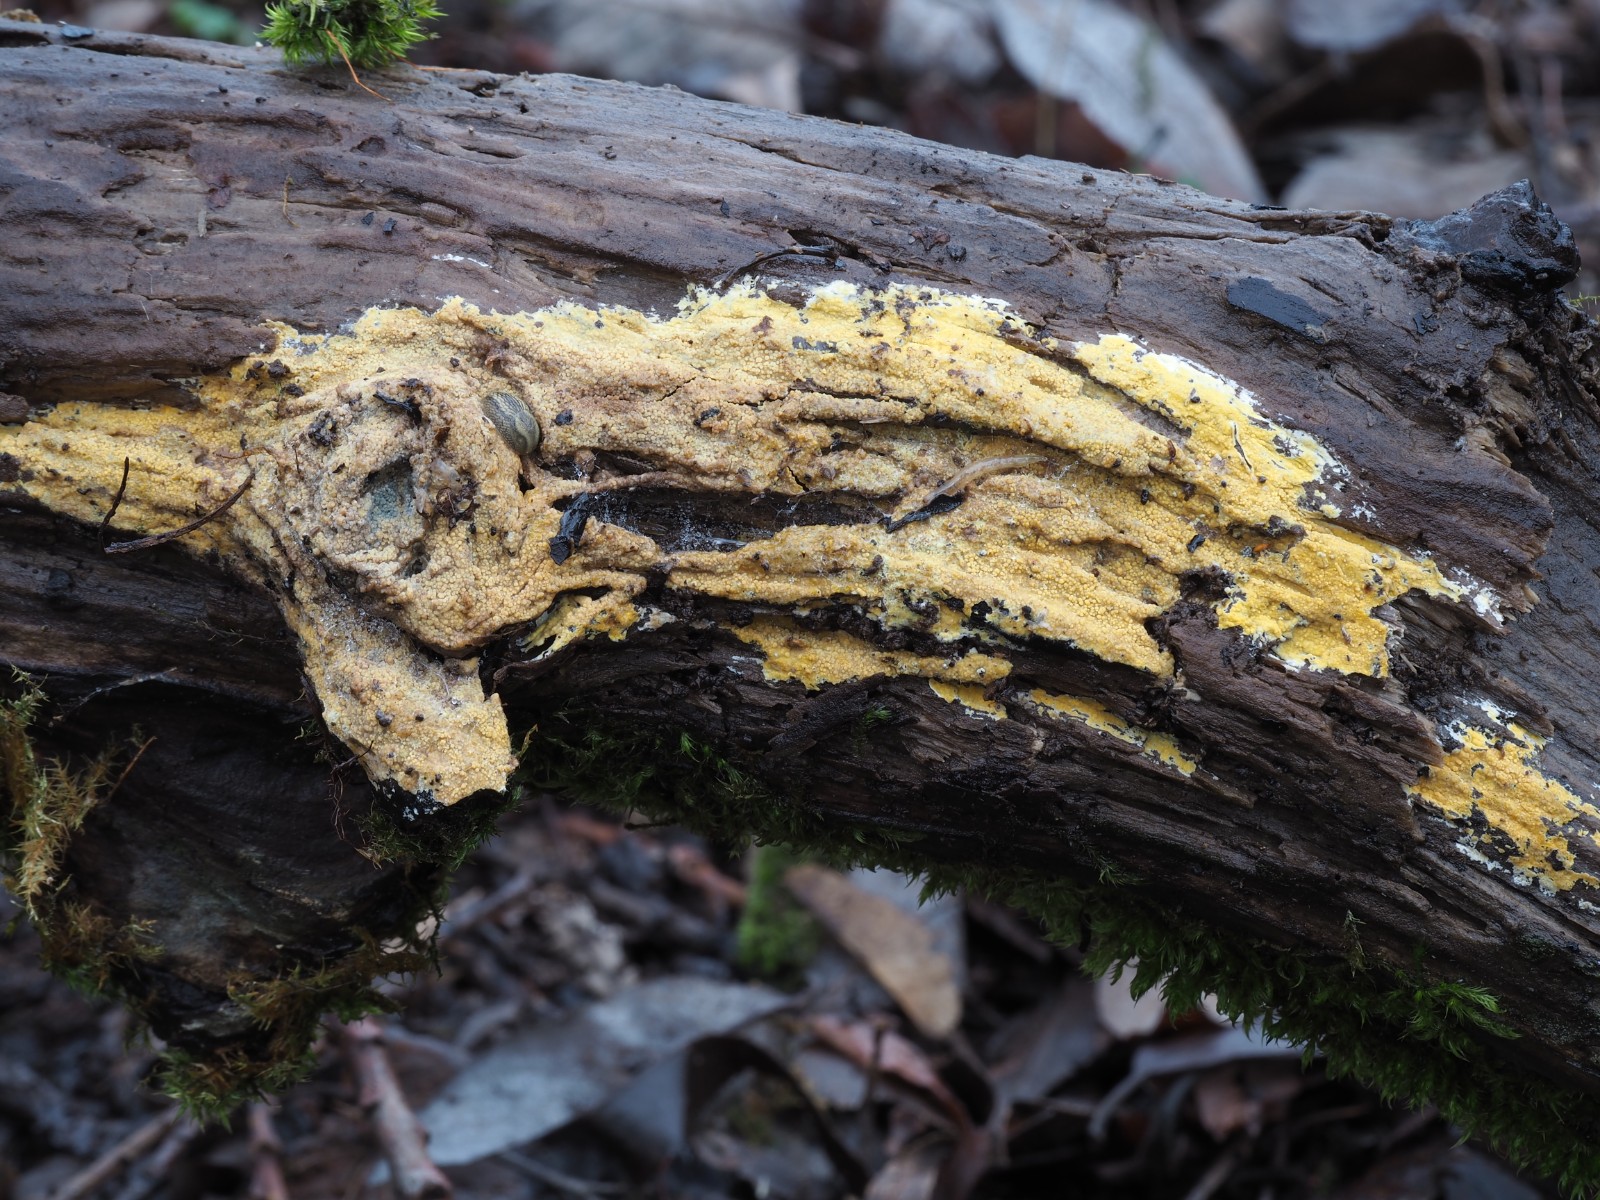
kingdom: Fungi
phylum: Basidiomycota
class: Agaricomycetes
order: Polyporales
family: Meruliaceae
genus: Phlebiodontia
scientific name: Phlebiodontia subochracea
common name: svovl-åresvamp
